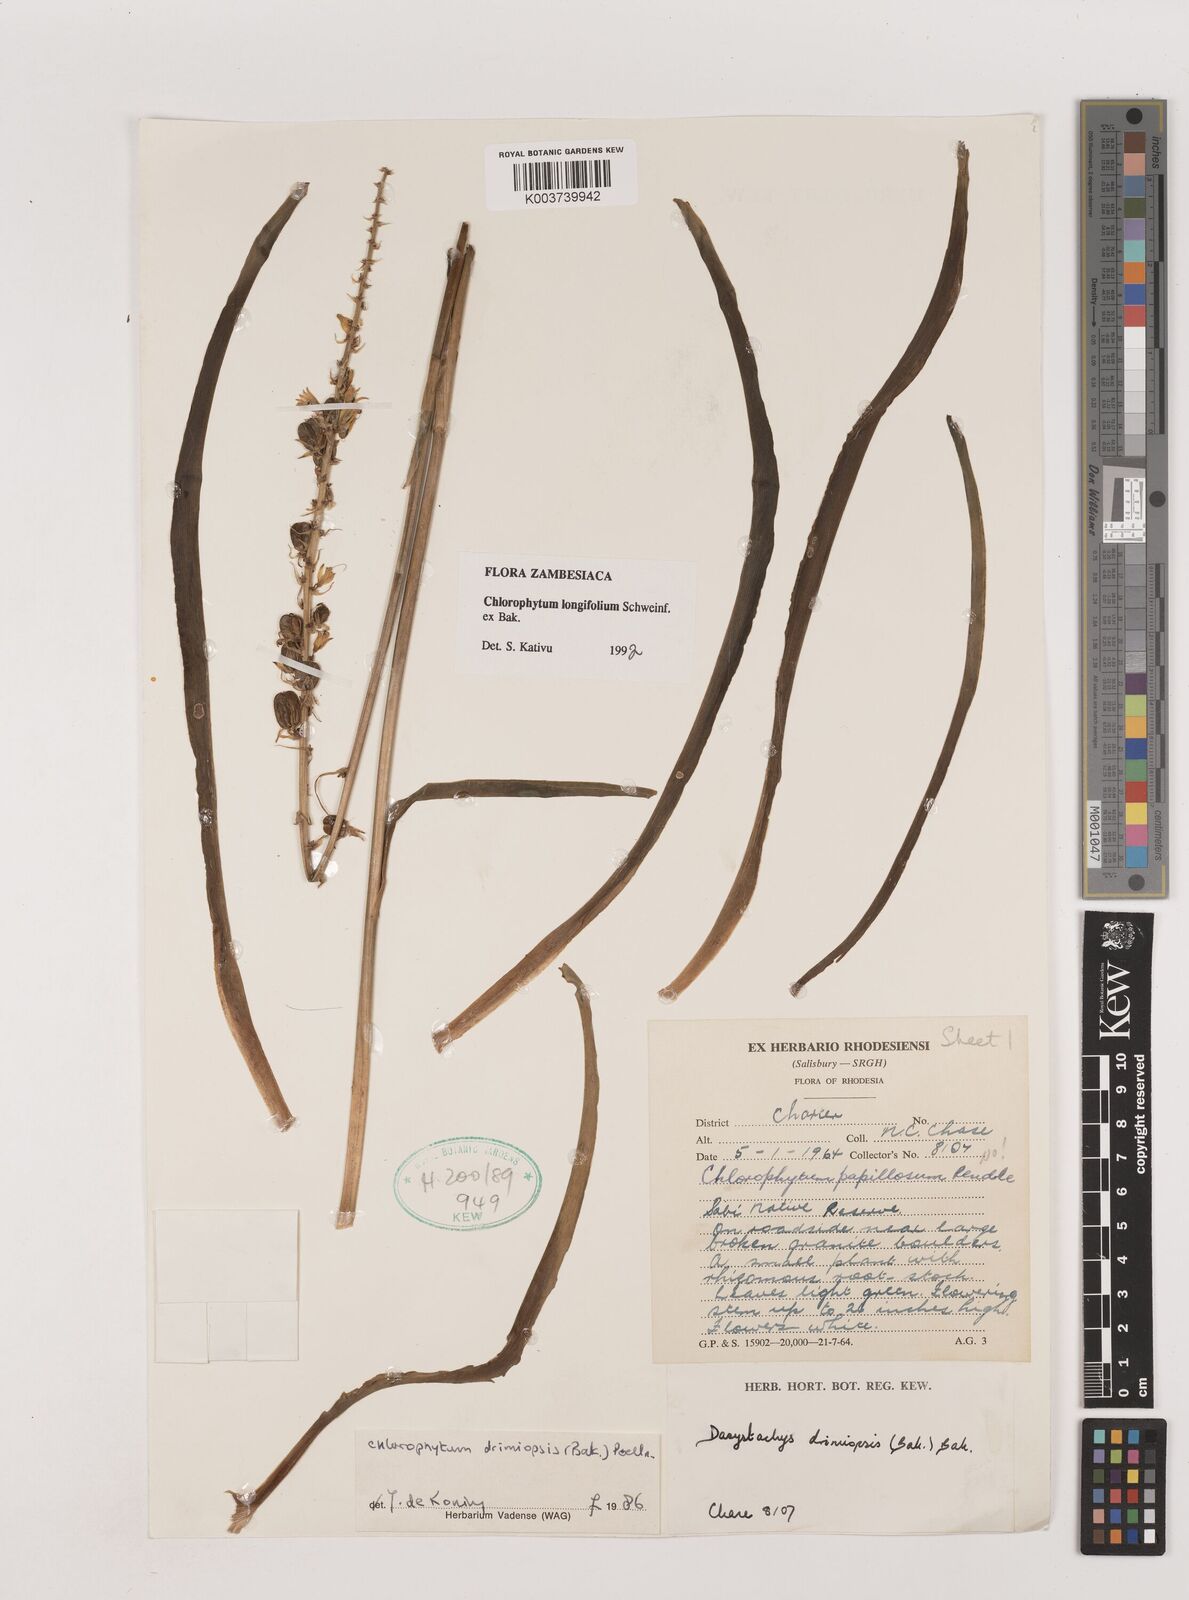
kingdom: Plantae
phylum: Tracheophyta
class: Liliopsida
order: Asparagales
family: Asparagaceae
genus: Chlorophytum
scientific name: Chlorophytum longifolium
